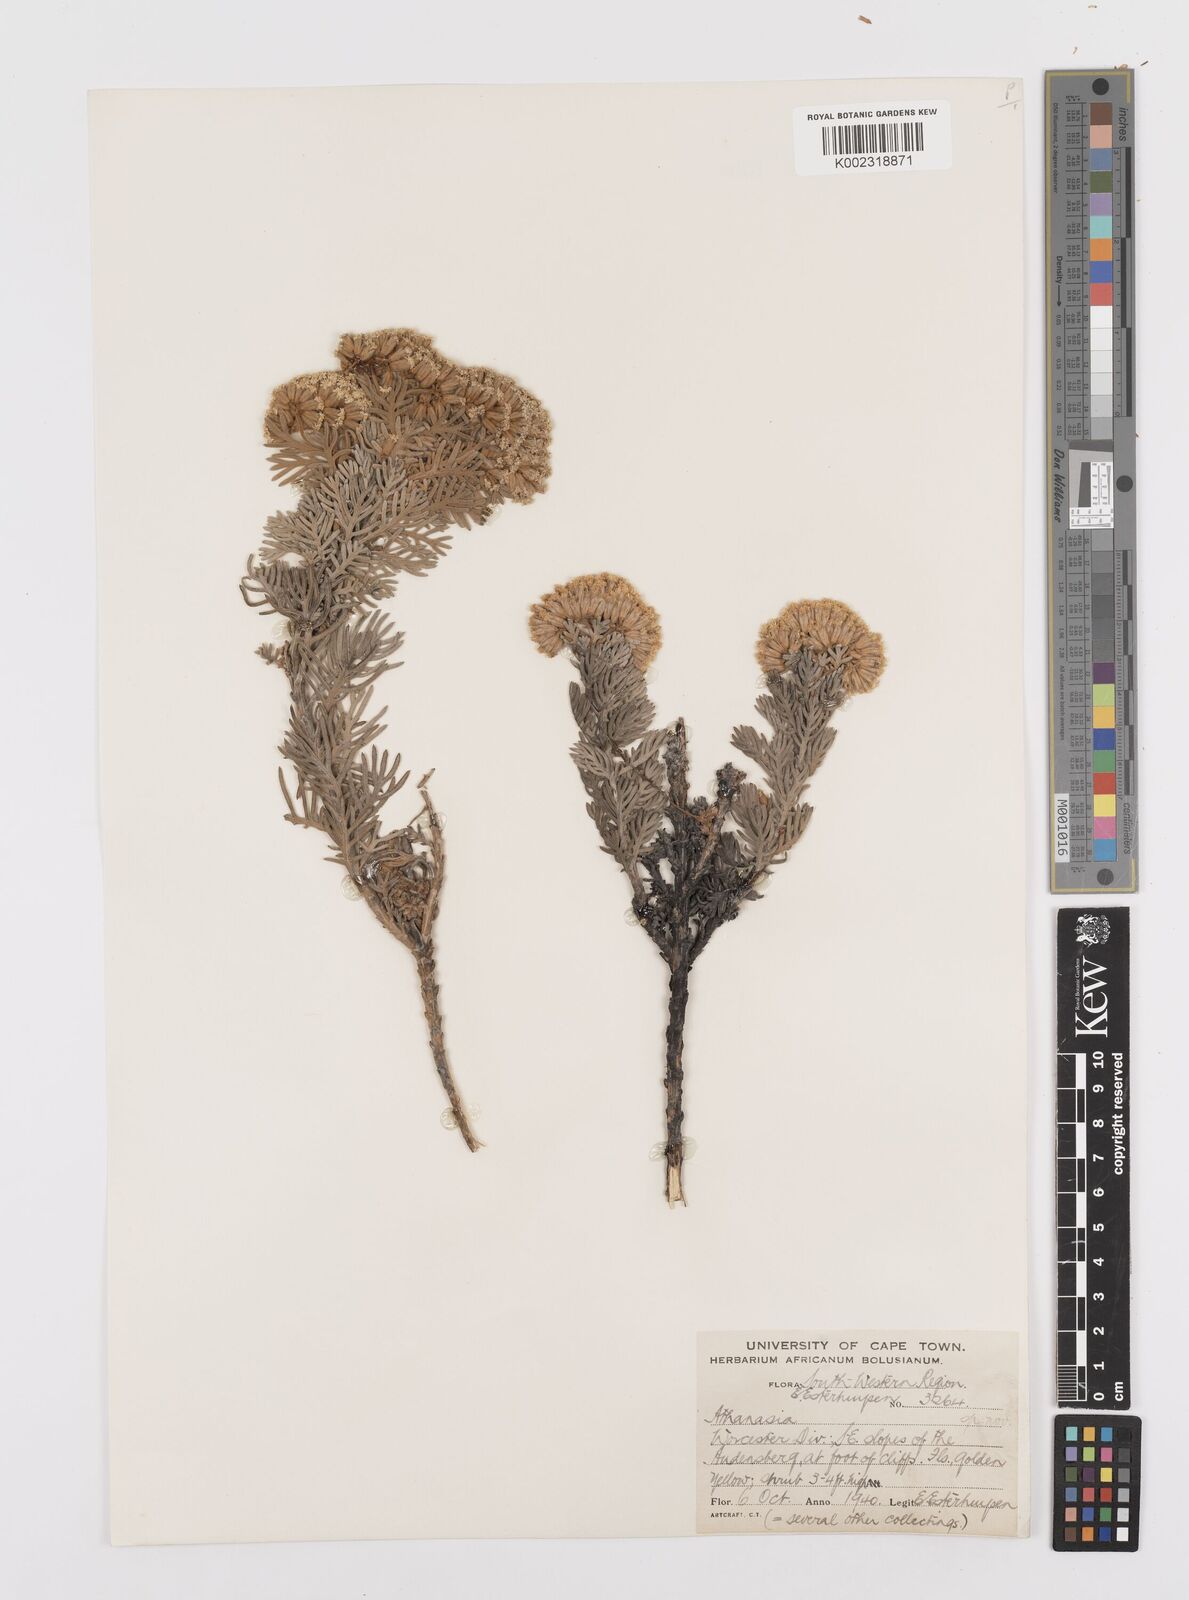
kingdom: Plantae
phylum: Tracheophyta
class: Magnoliopsida
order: Asterales
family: Asteraceae
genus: Hymenolepis
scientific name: Hymenolepis speciosa
